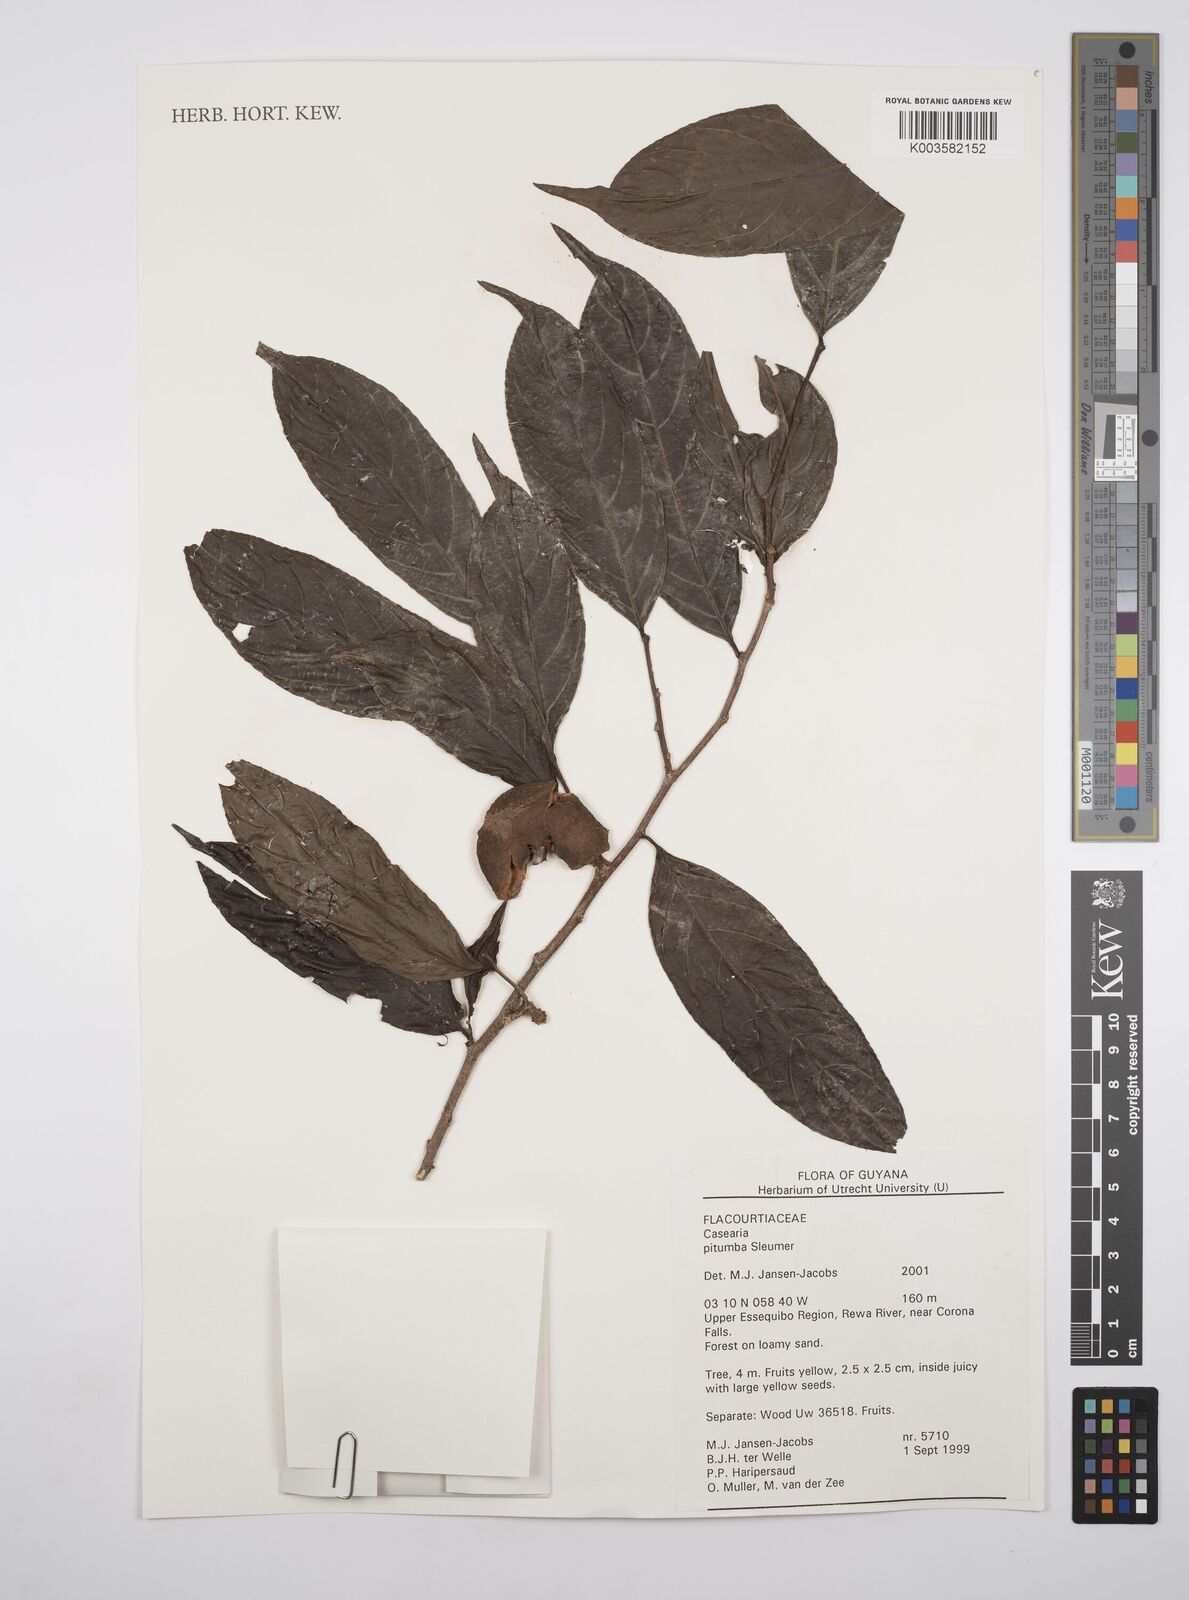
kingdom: Plantae
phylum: Tracheophyta
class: Magnoliopsida
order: Malpighiales
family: Salicaceae
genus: Casearia
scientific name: Casearia pitumba
